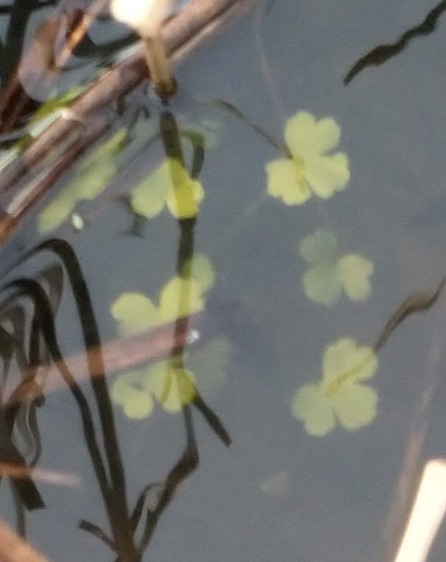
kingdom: Plantae
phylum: Tracheophyta
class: Magnoliopsida
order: Ranunculales
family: Ranunculaceae
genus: Ranunculus
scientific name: Ranunculus peltatus
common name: Storblomstret vandranunkel
